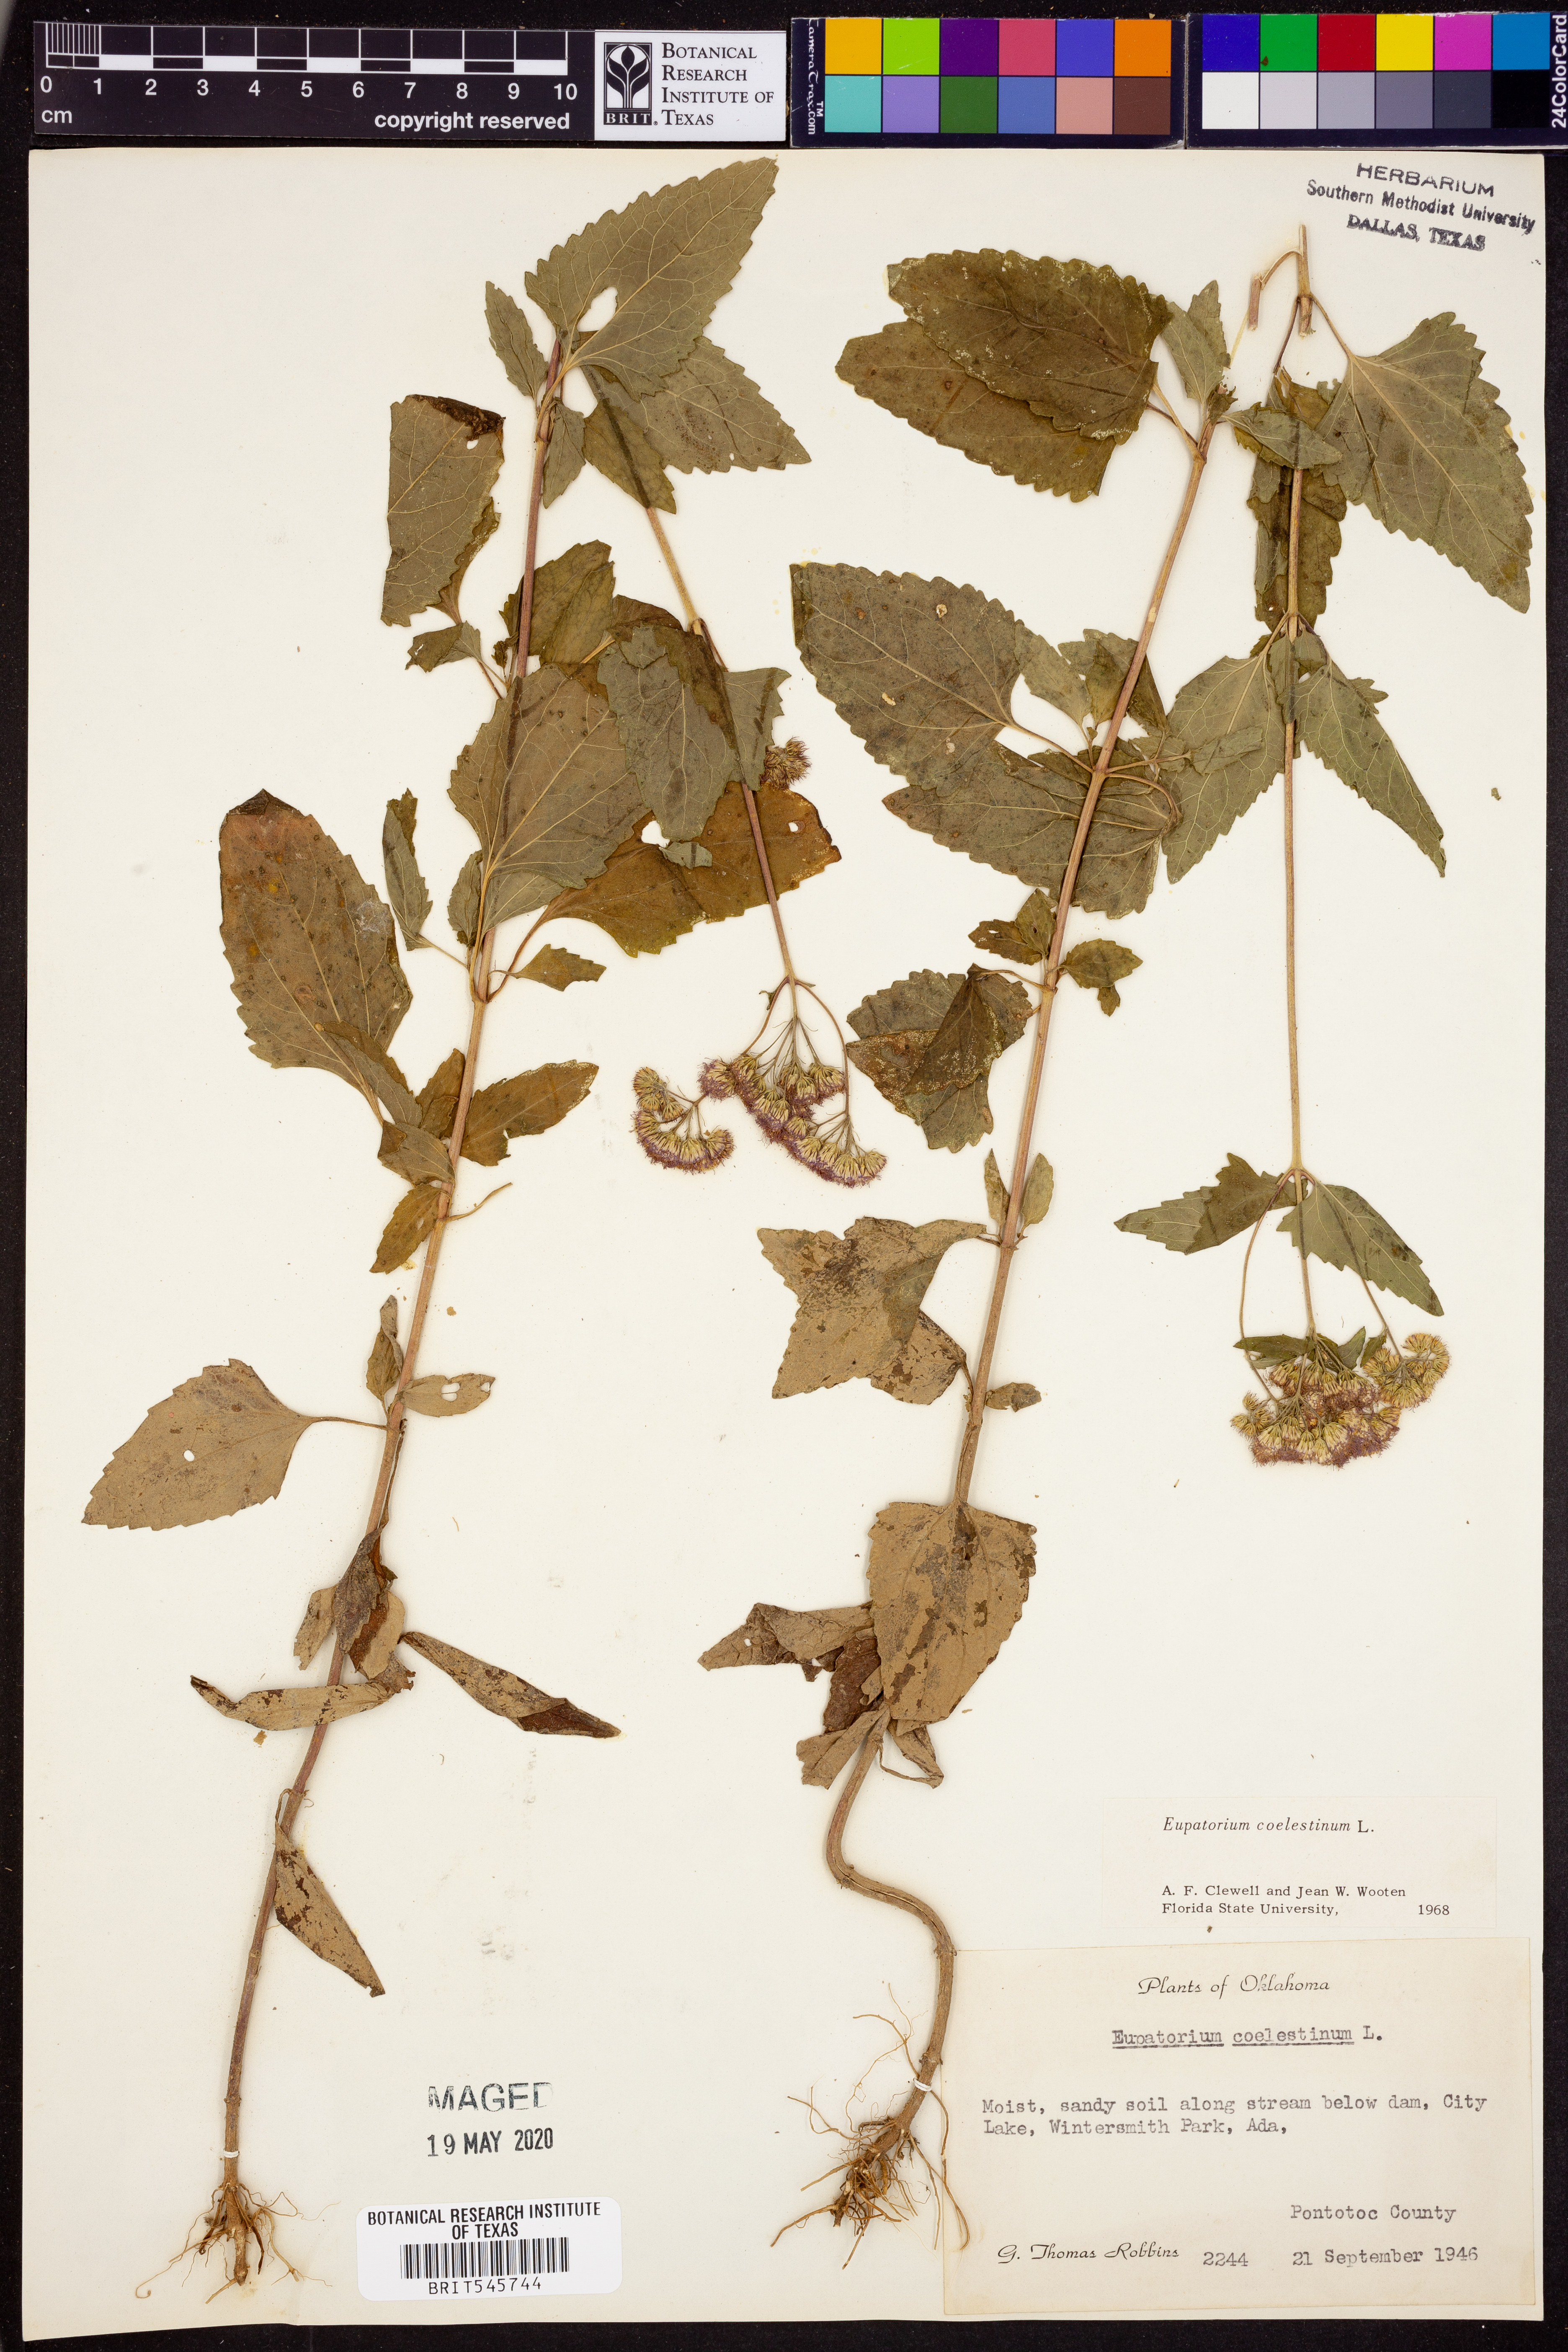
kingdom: Plantae
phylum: Tracheophyta
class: Magnoliopsida
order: Asterales
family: Asteraceae
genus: Conoclinium
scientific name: Conoclinium coelestinum
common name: Blue mistflower
